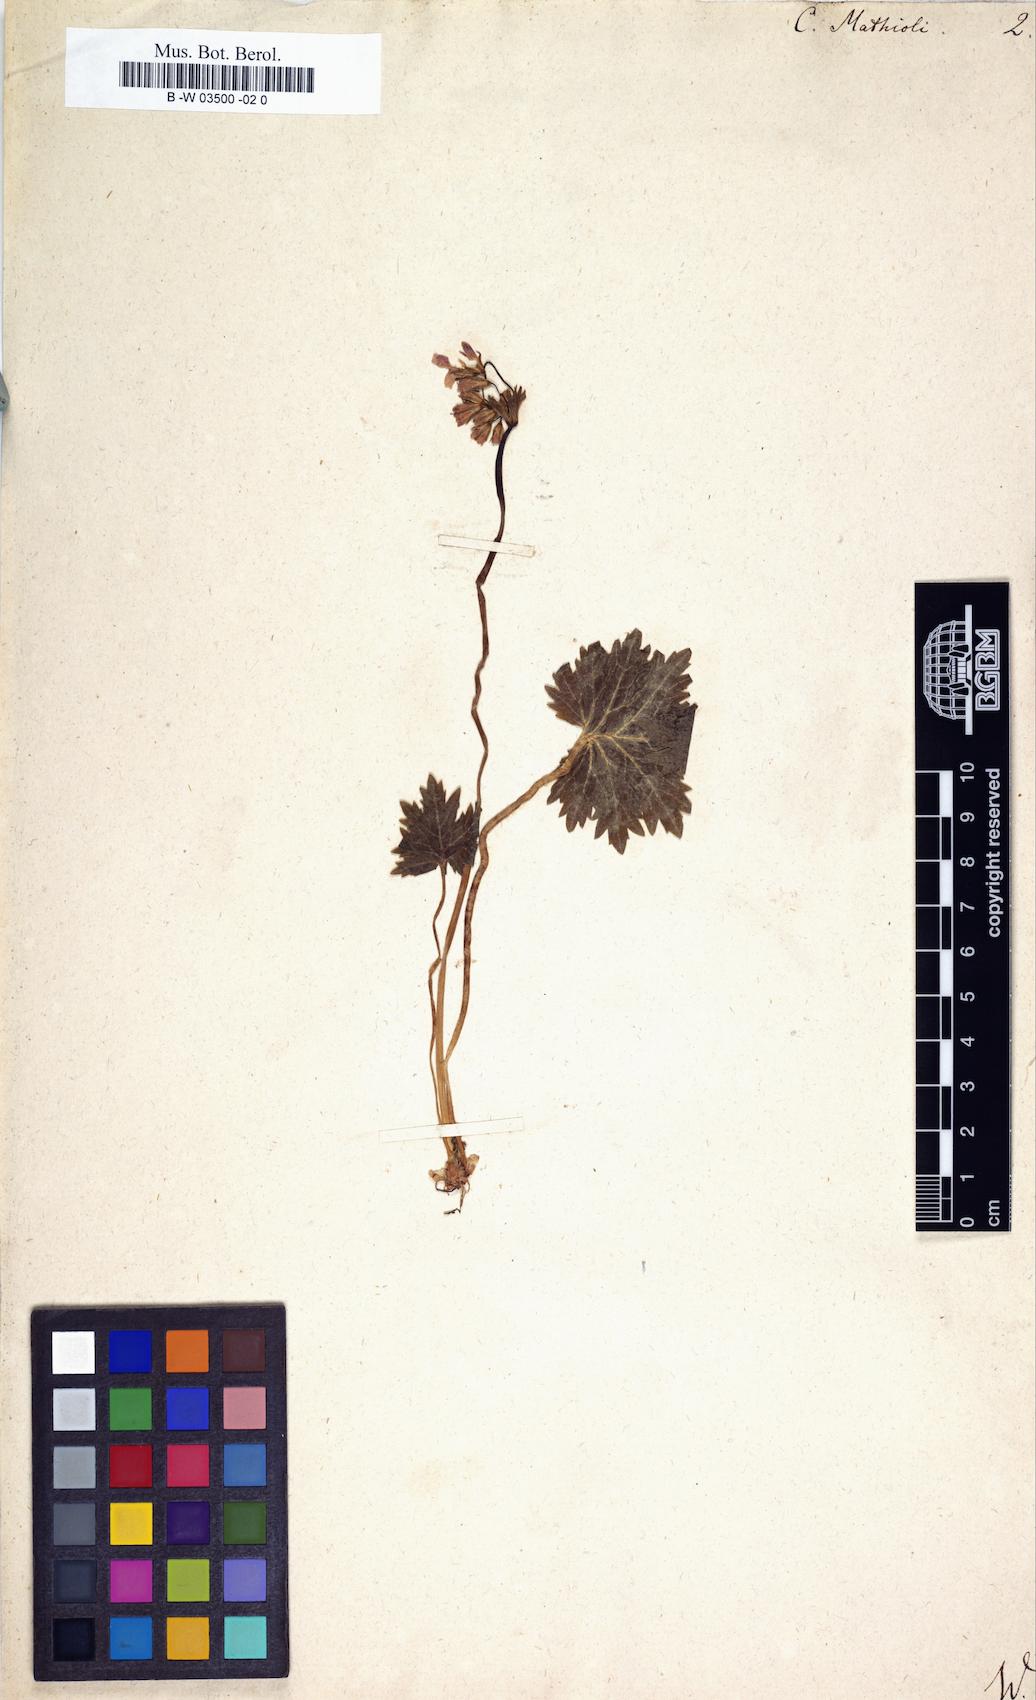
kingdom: Plantae
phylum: Tracheophyta
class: Magnoliopsida
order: Ericales
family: Primulaceae
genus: Primula
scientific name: Primula matthioli
